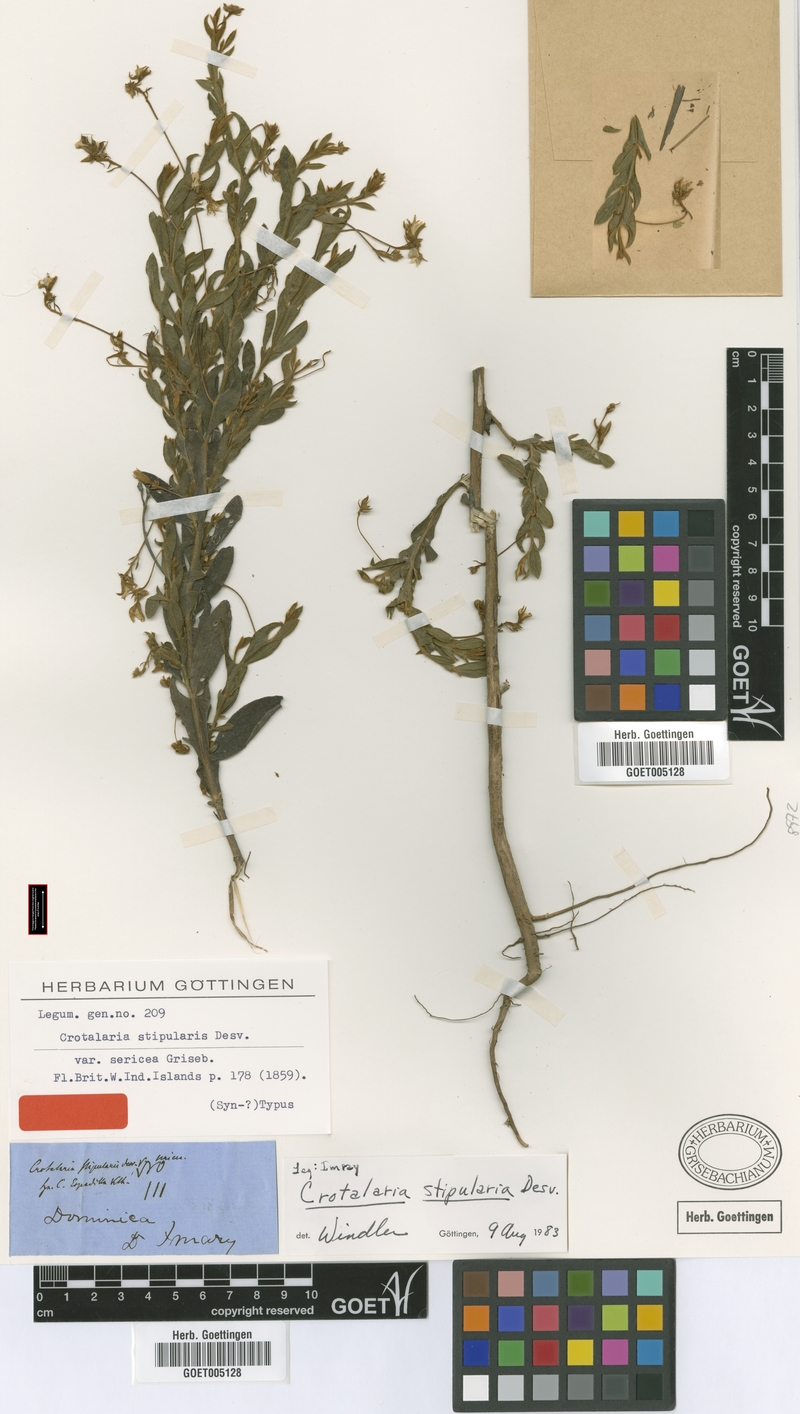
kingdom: Plantae
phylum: Tracheophyta
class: Magnoliopsida
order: Fabales
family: Fabaceae
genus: Crotalaria
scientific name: Crotalaria stipularia
